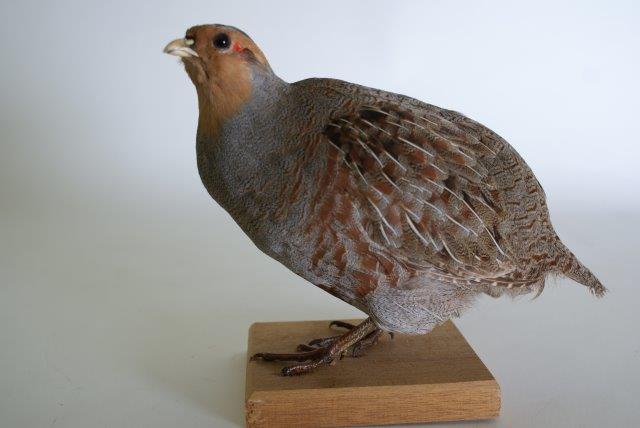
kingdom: Animalia
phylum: Chordata
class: Aves
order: Galliformes
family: Phasianidae
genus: Perdix
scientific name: Perdix perdix
